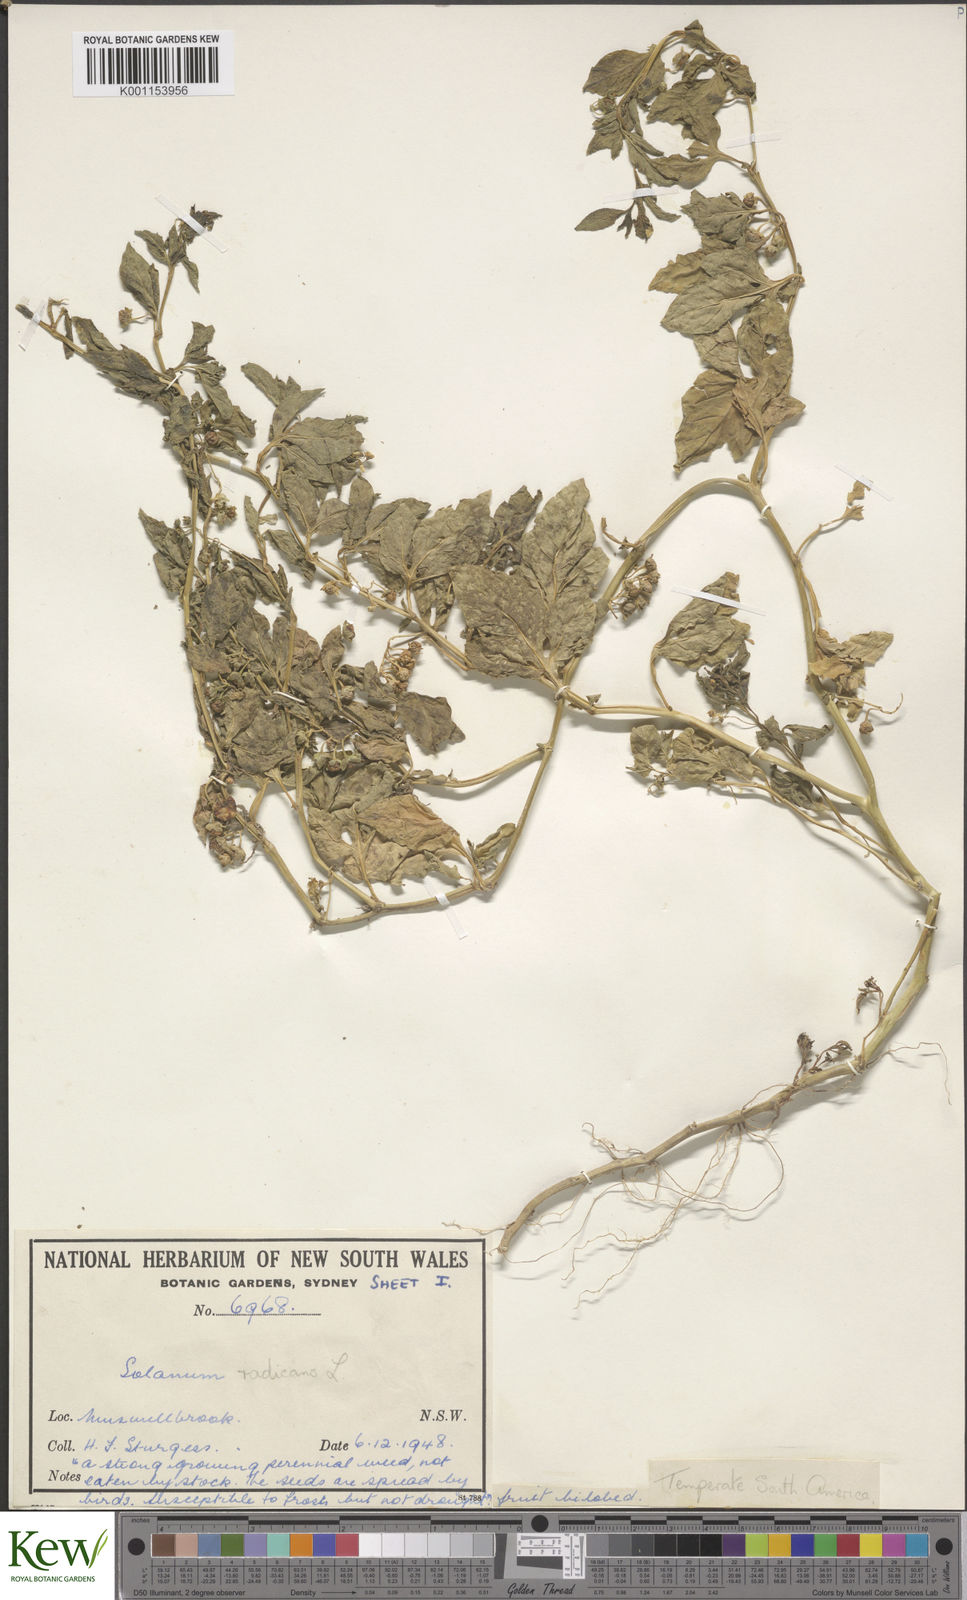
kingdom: Plantae
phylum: Tracheophyta
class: Magnoliopsida
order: Solanales
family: Solanaceae
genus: Solanum
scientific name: Solanum palitans
